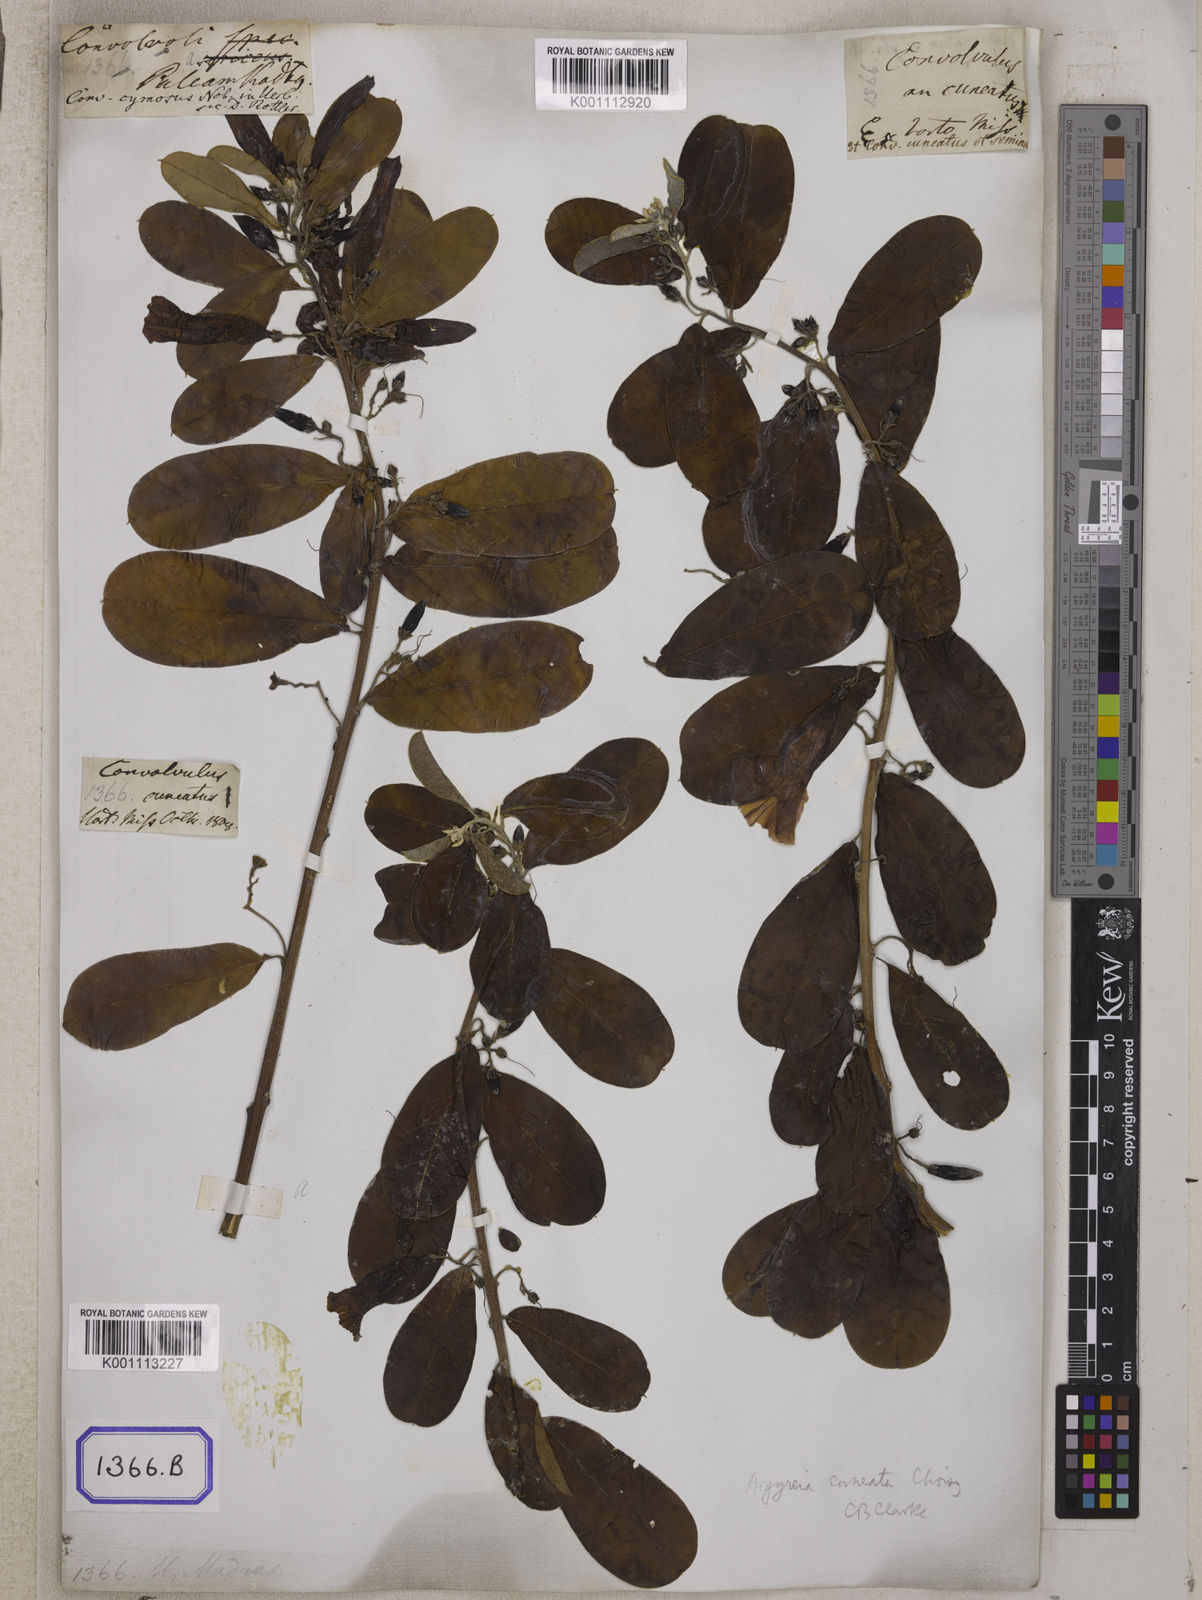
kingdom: Plantae
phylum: Tracheophyta
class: Magnoliopsida
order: Solanales
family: Convolvulaceae
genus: Convolvulus
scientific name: Convolvulus
